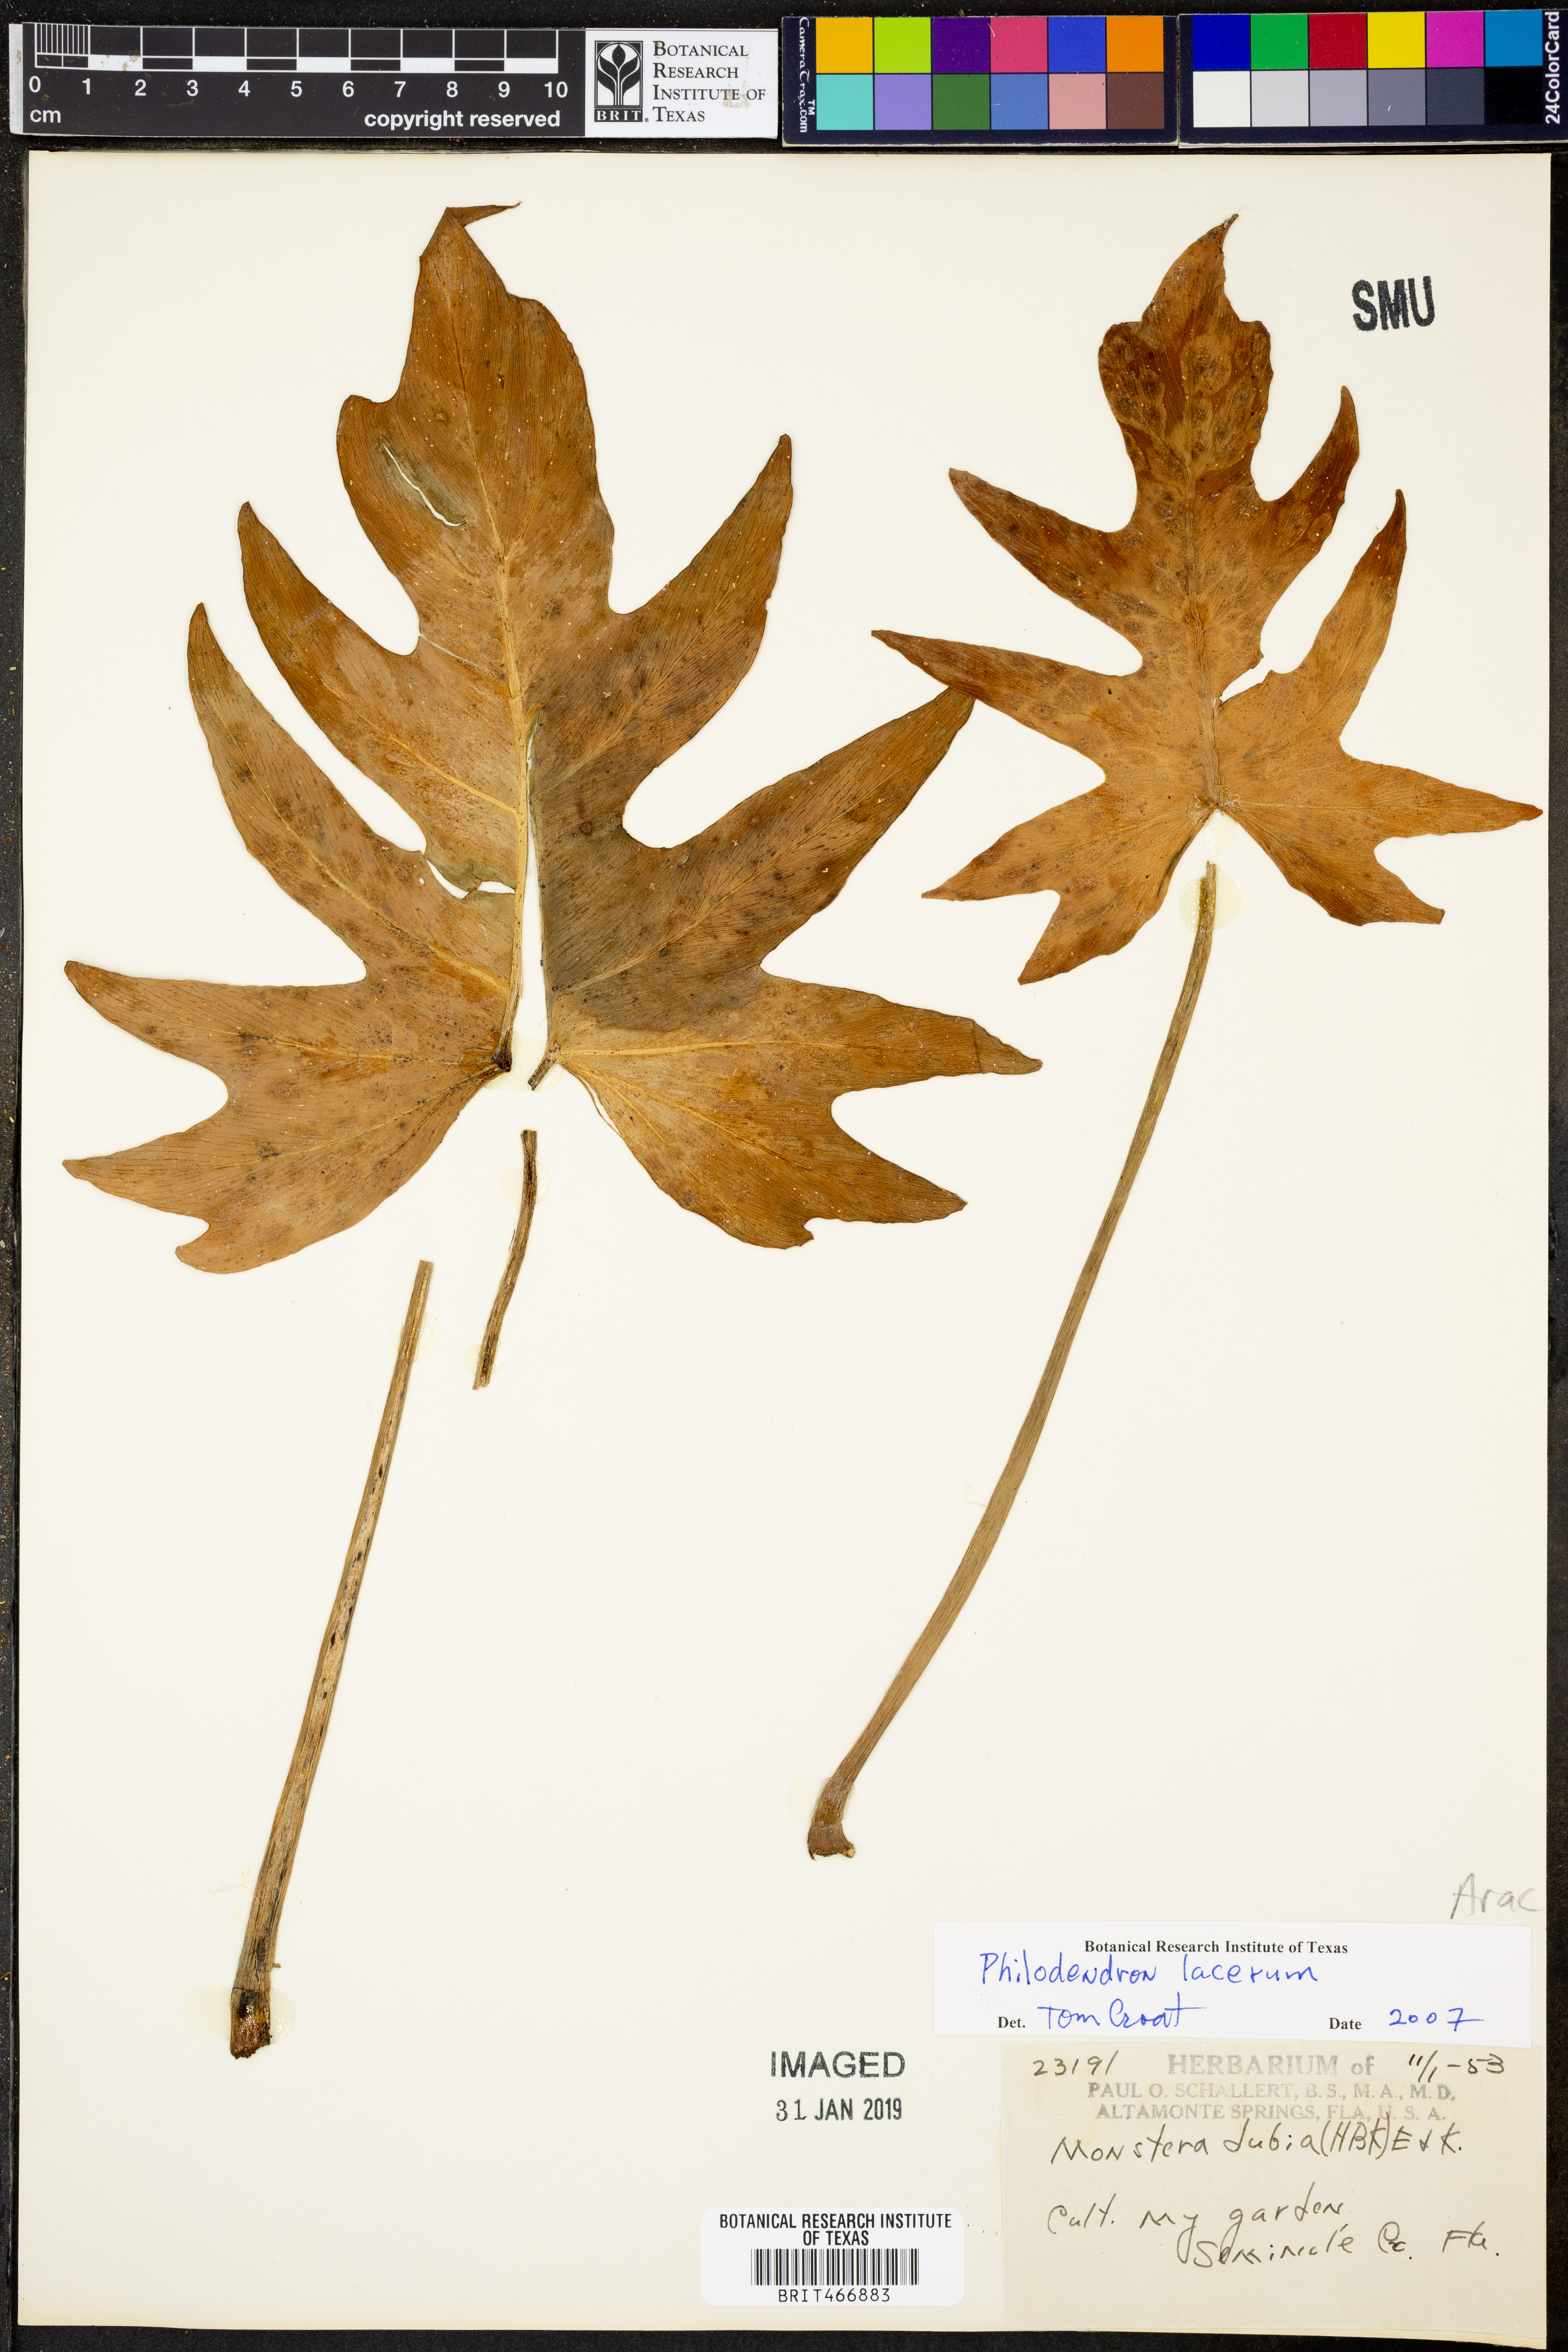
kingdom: Plantae
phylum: Tracheophyta
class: Liliopsida
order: Alismatales
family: Araceae
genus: Philodendron
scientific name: Philodendron lacerum
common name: Philodendron
